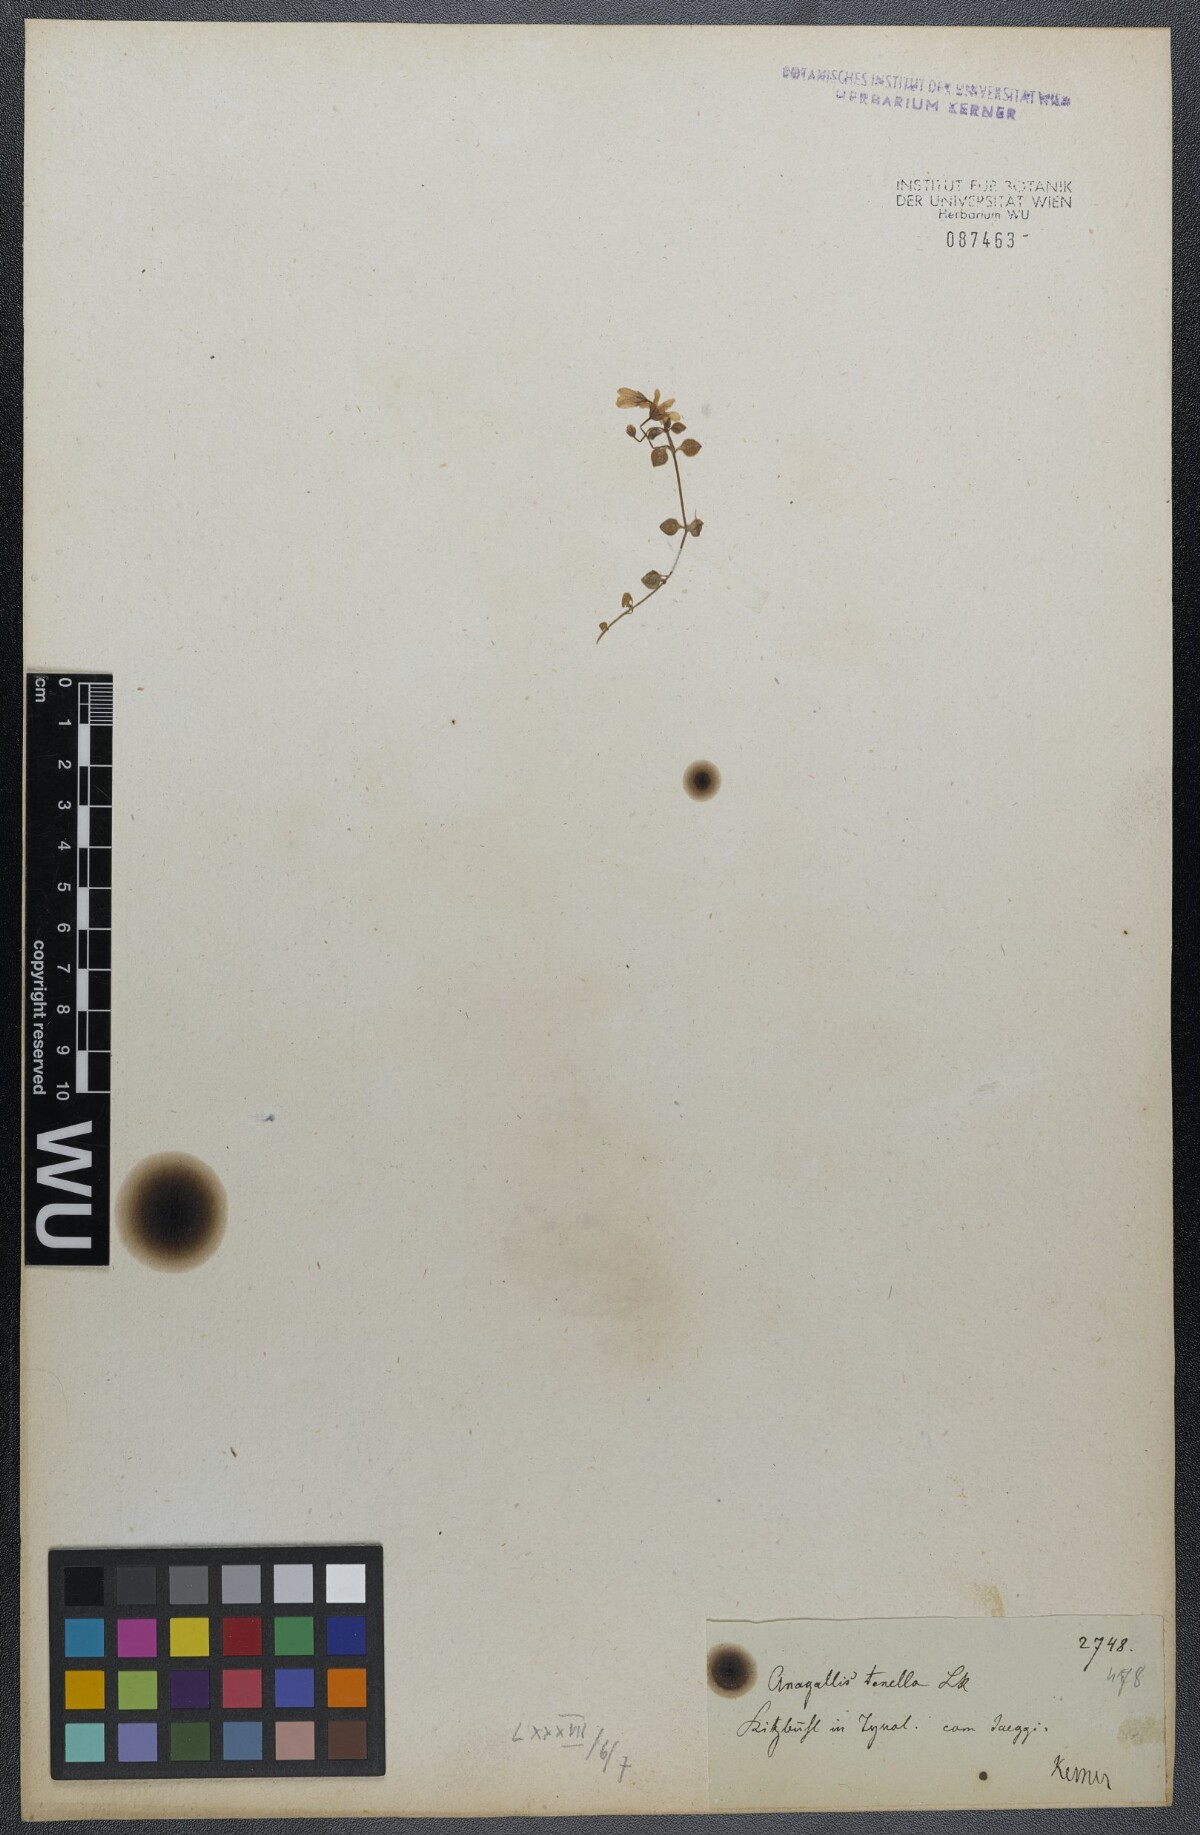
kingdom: Plantae
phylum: Tracheophyta
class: Magnoliopsida
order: Ericales
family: Primulaceae
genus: Lysimachia
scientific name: Lysimachia tenella
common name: European bog pimpernel
